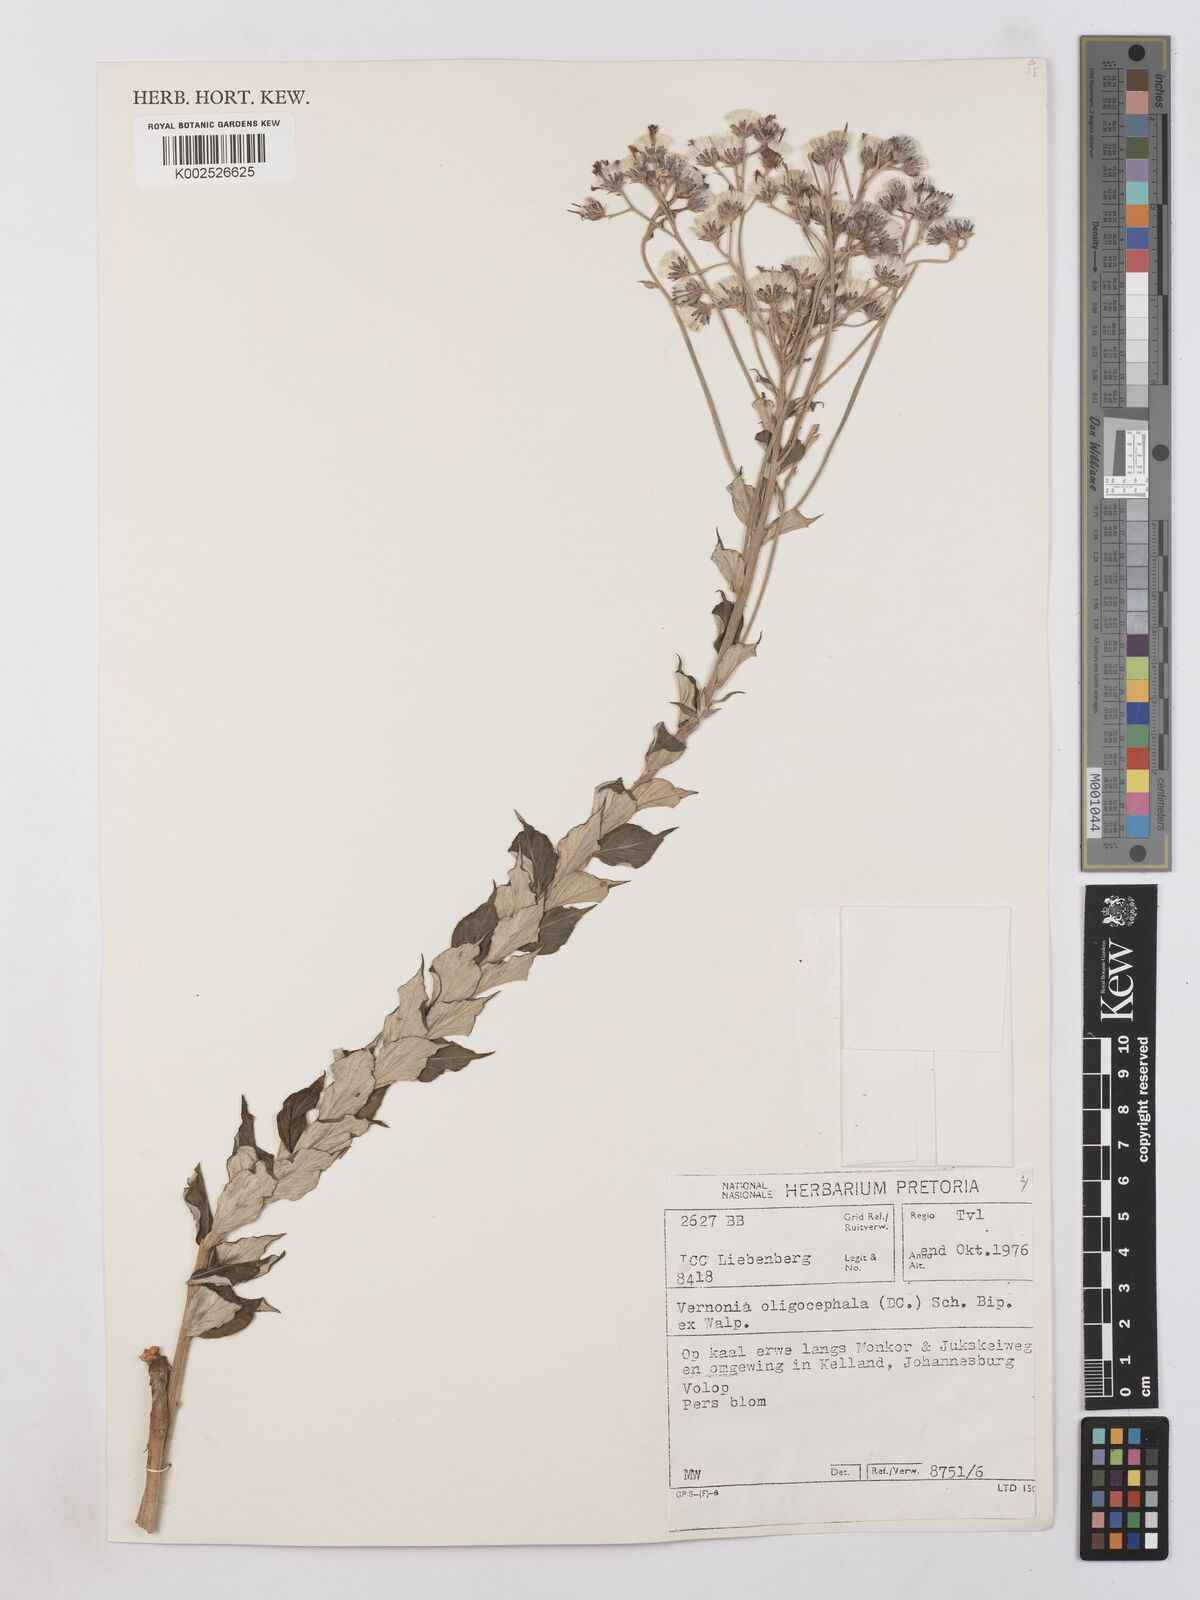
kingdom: Plantae
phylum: Tracheophyta
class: Magnoliopsida
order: Asterales
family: Asteraceae
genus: Hilliardiella
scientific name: Hilliardiella oligocephala
